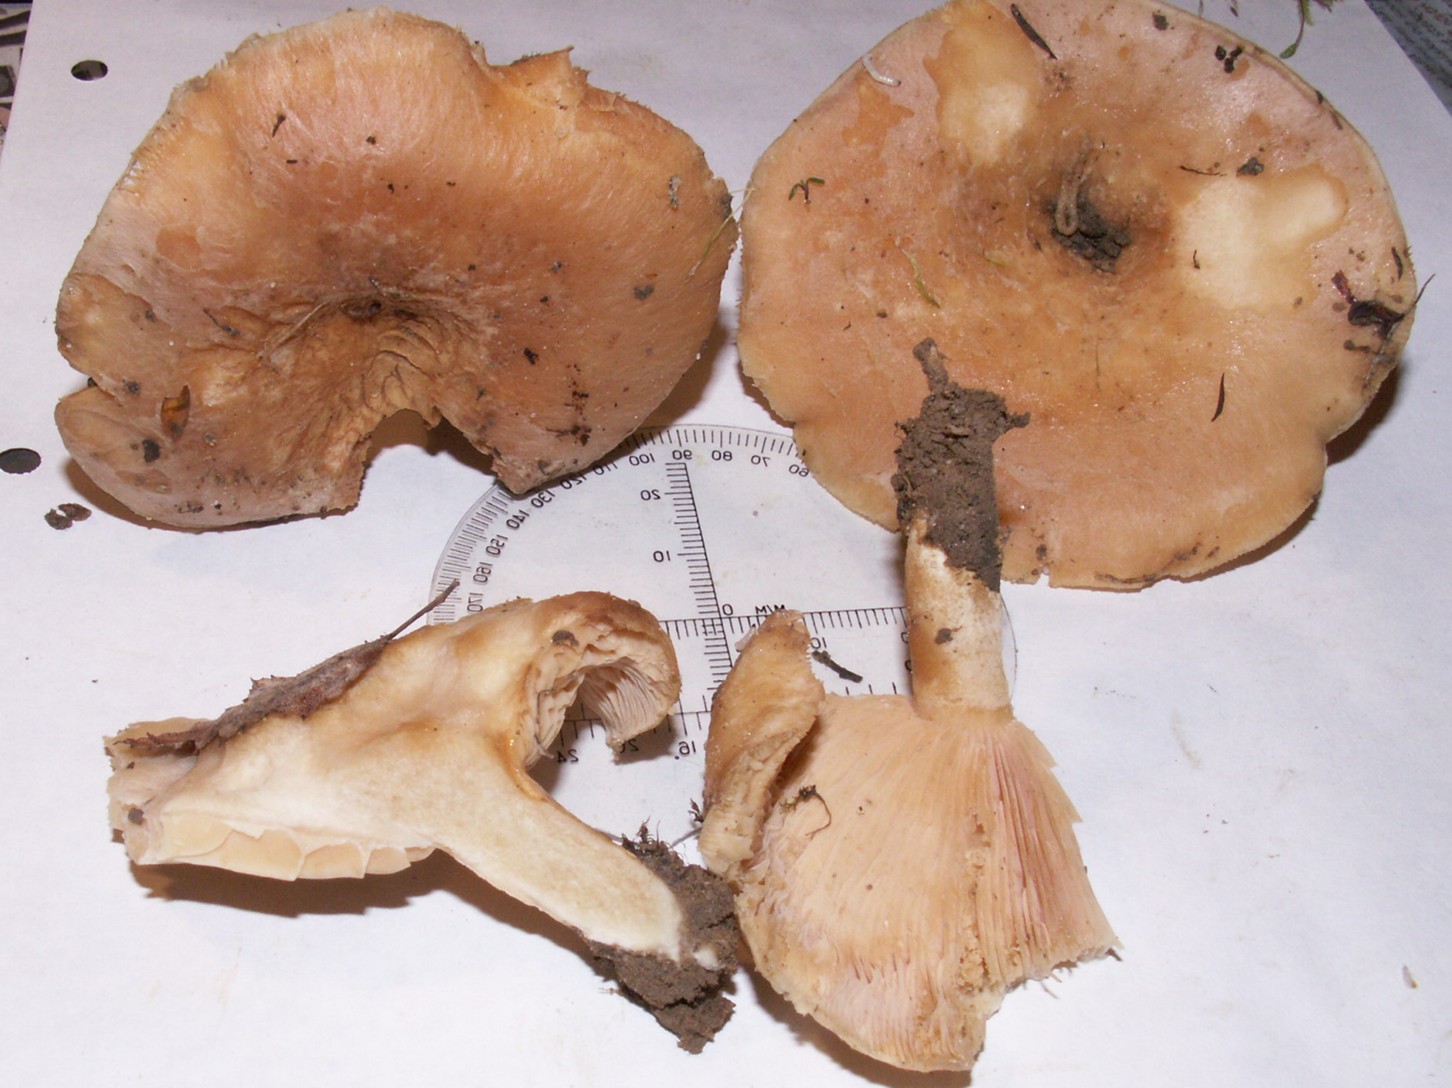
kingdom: Fungi
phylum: Basidiomycota
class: Agaricomycetes
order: Russulales
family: Russulaceae
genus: Lactarius
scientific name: Lactarius pubescens
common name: dunet mælkehat
